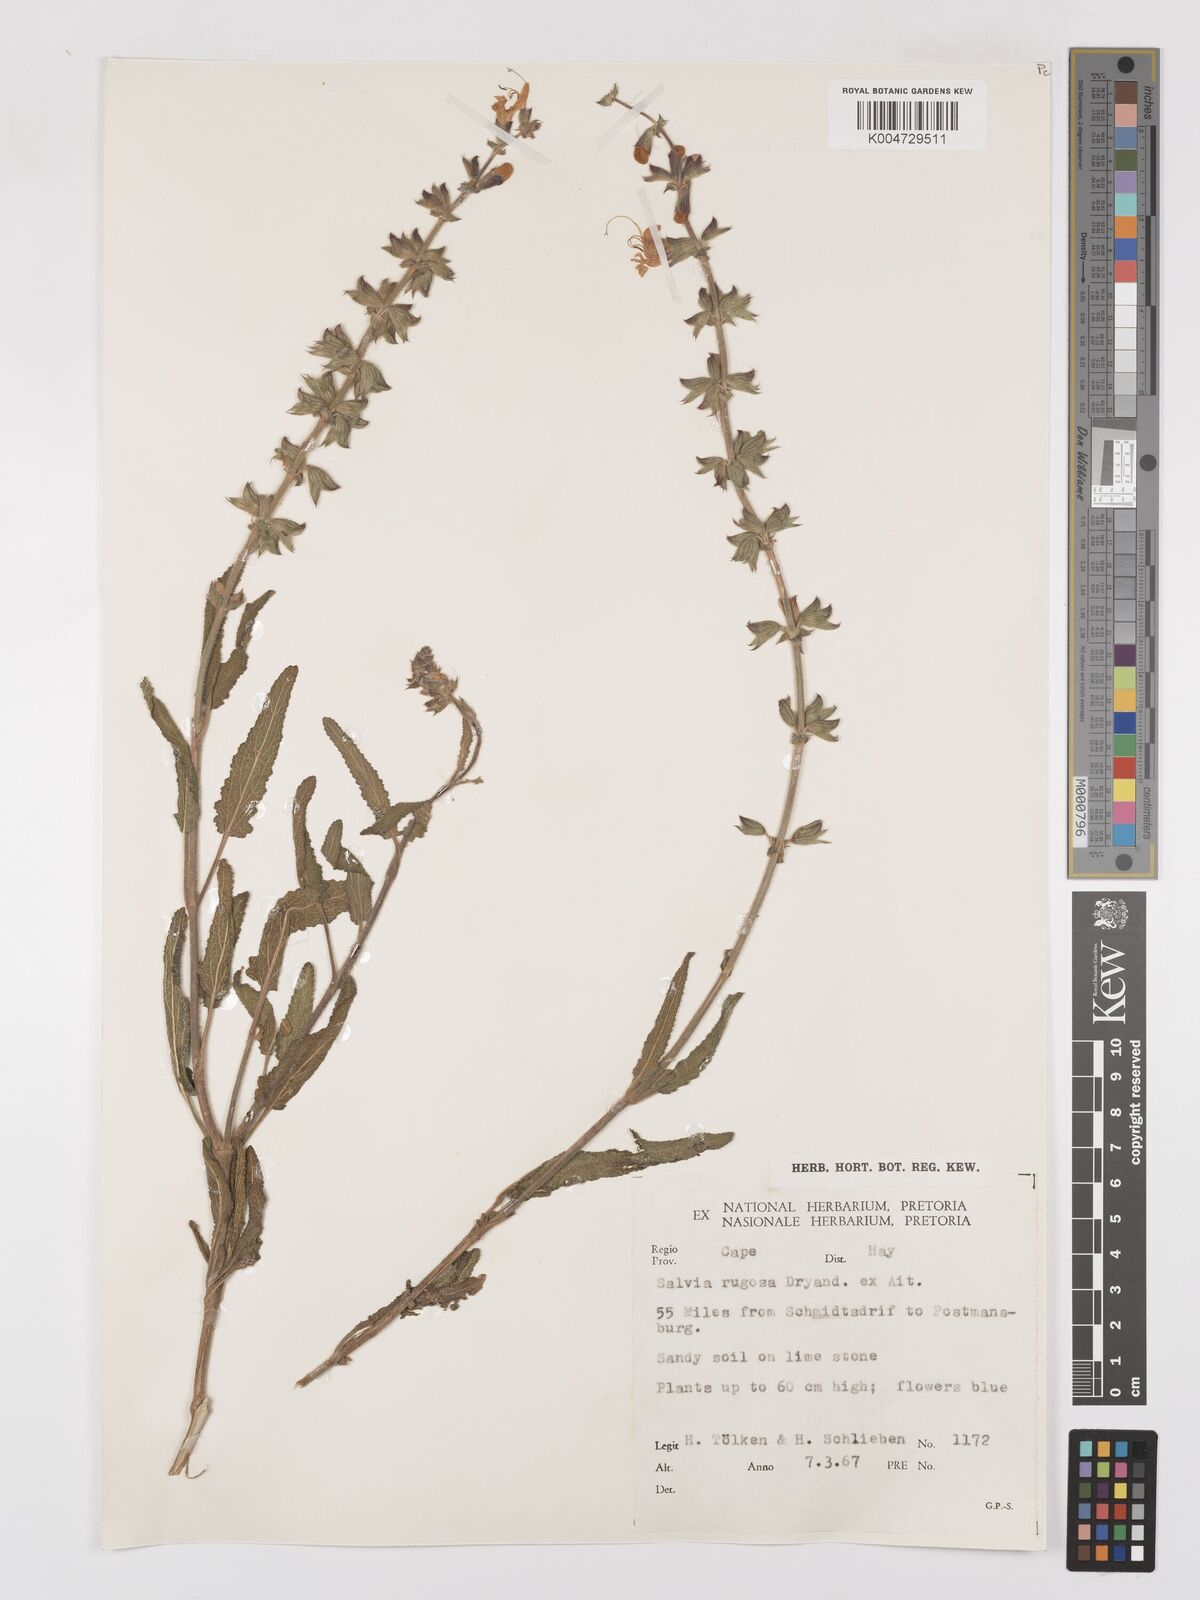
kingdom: Plantae
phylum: Tracheophyta
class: Magnoliopsida
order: Lamiales
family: Lamiaceae
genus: Salvia
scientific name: Salvia
